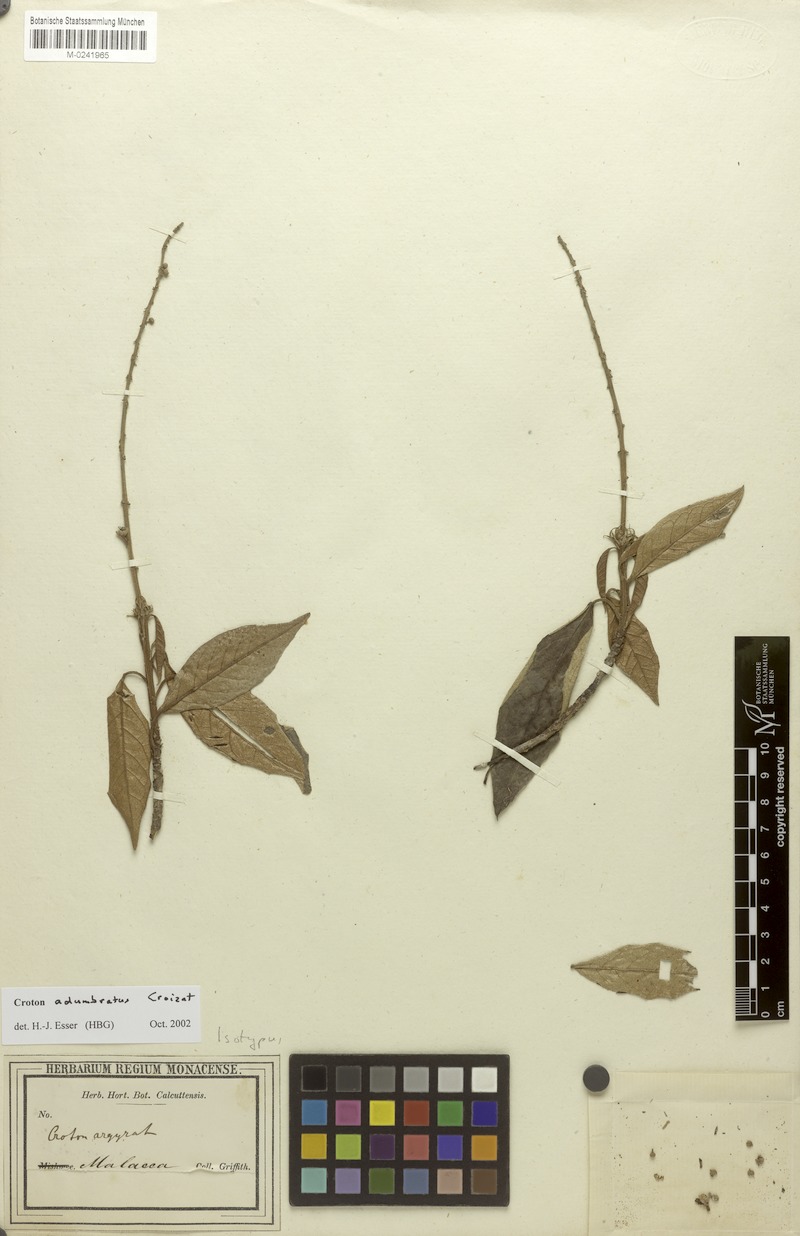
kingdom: Plantae
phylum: Tracheophyta
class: Magnoliopsida
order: Malpighiales
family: Euphorbiaceae
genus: Croton
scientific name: Croton erythrostachys
